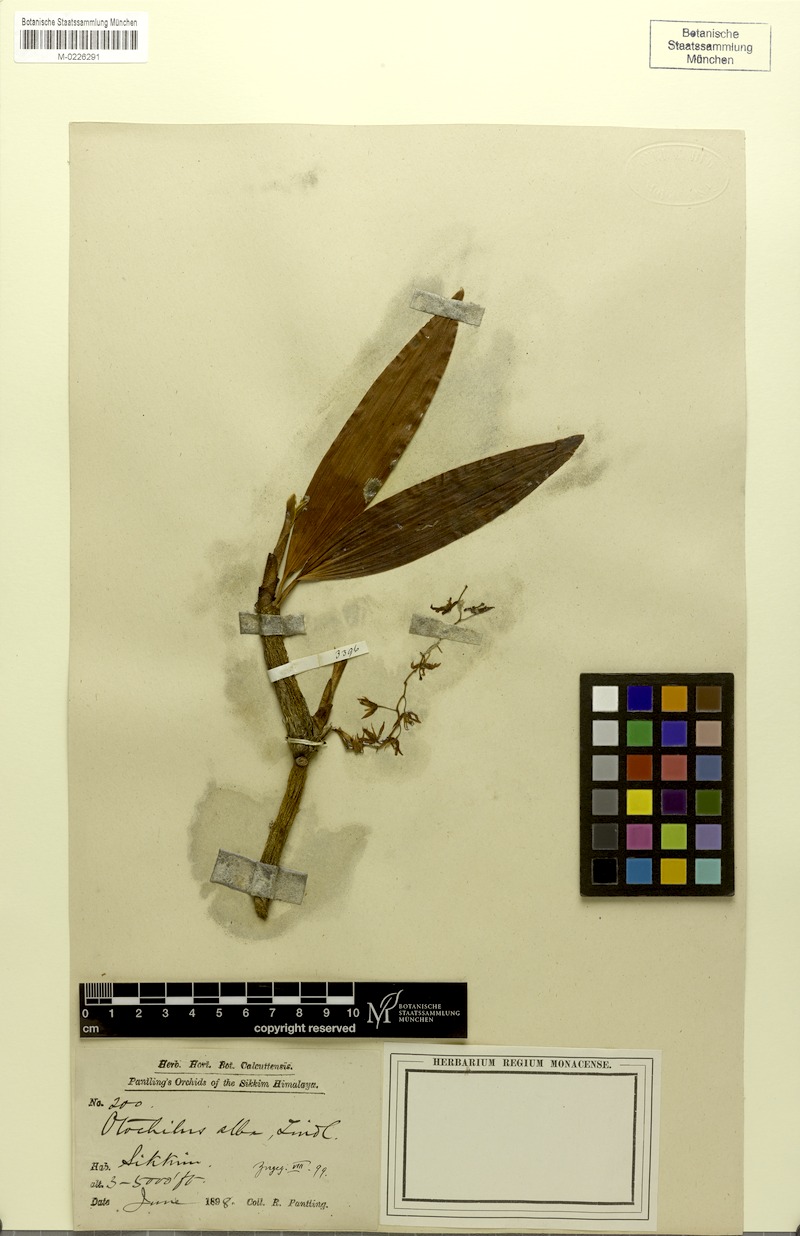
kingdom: Plantae
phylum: Tracheophyta
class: Liliopsida
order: Asparagales
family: Orchidaceae
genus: Coelogyne
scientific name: Coelogyne alba
